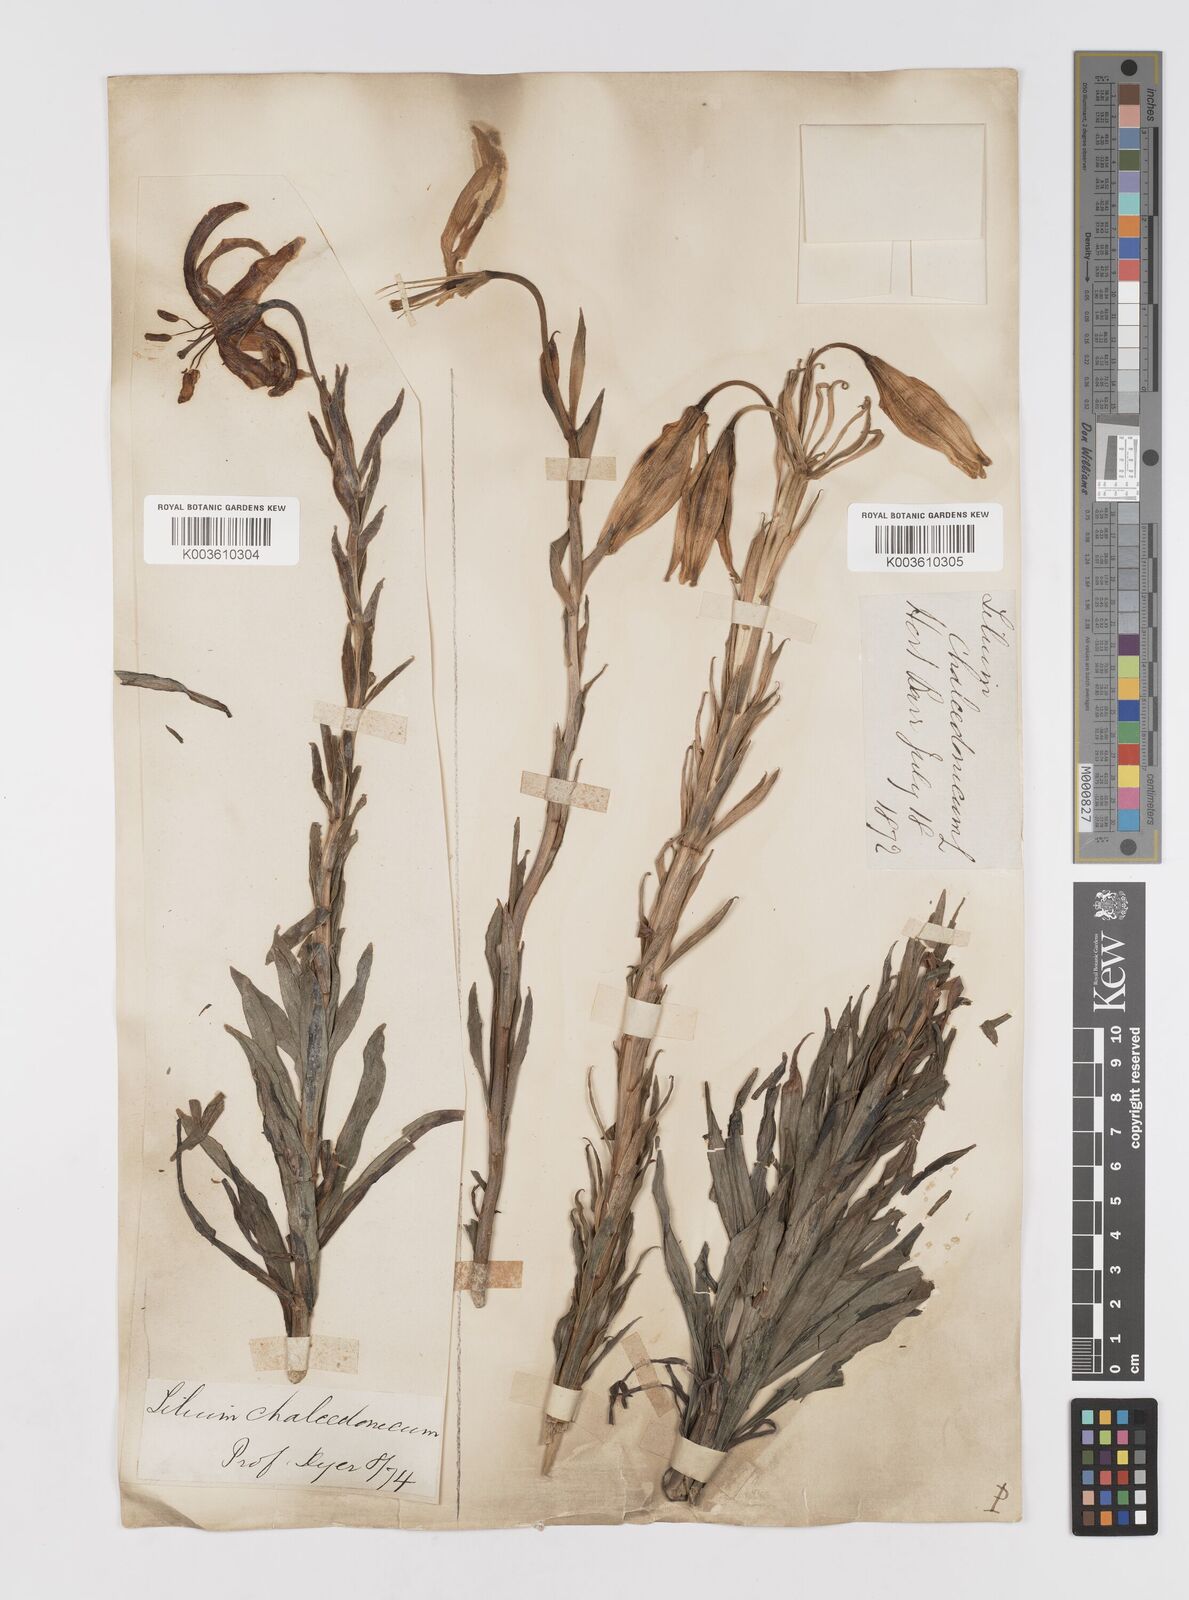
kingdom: Plantae
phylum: Tracheophyta
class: Liliopsida
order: Liliales
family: Liliaceae
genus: Lilium
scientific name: Lilium chalcedonicum
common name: Red martagon of constantinople
